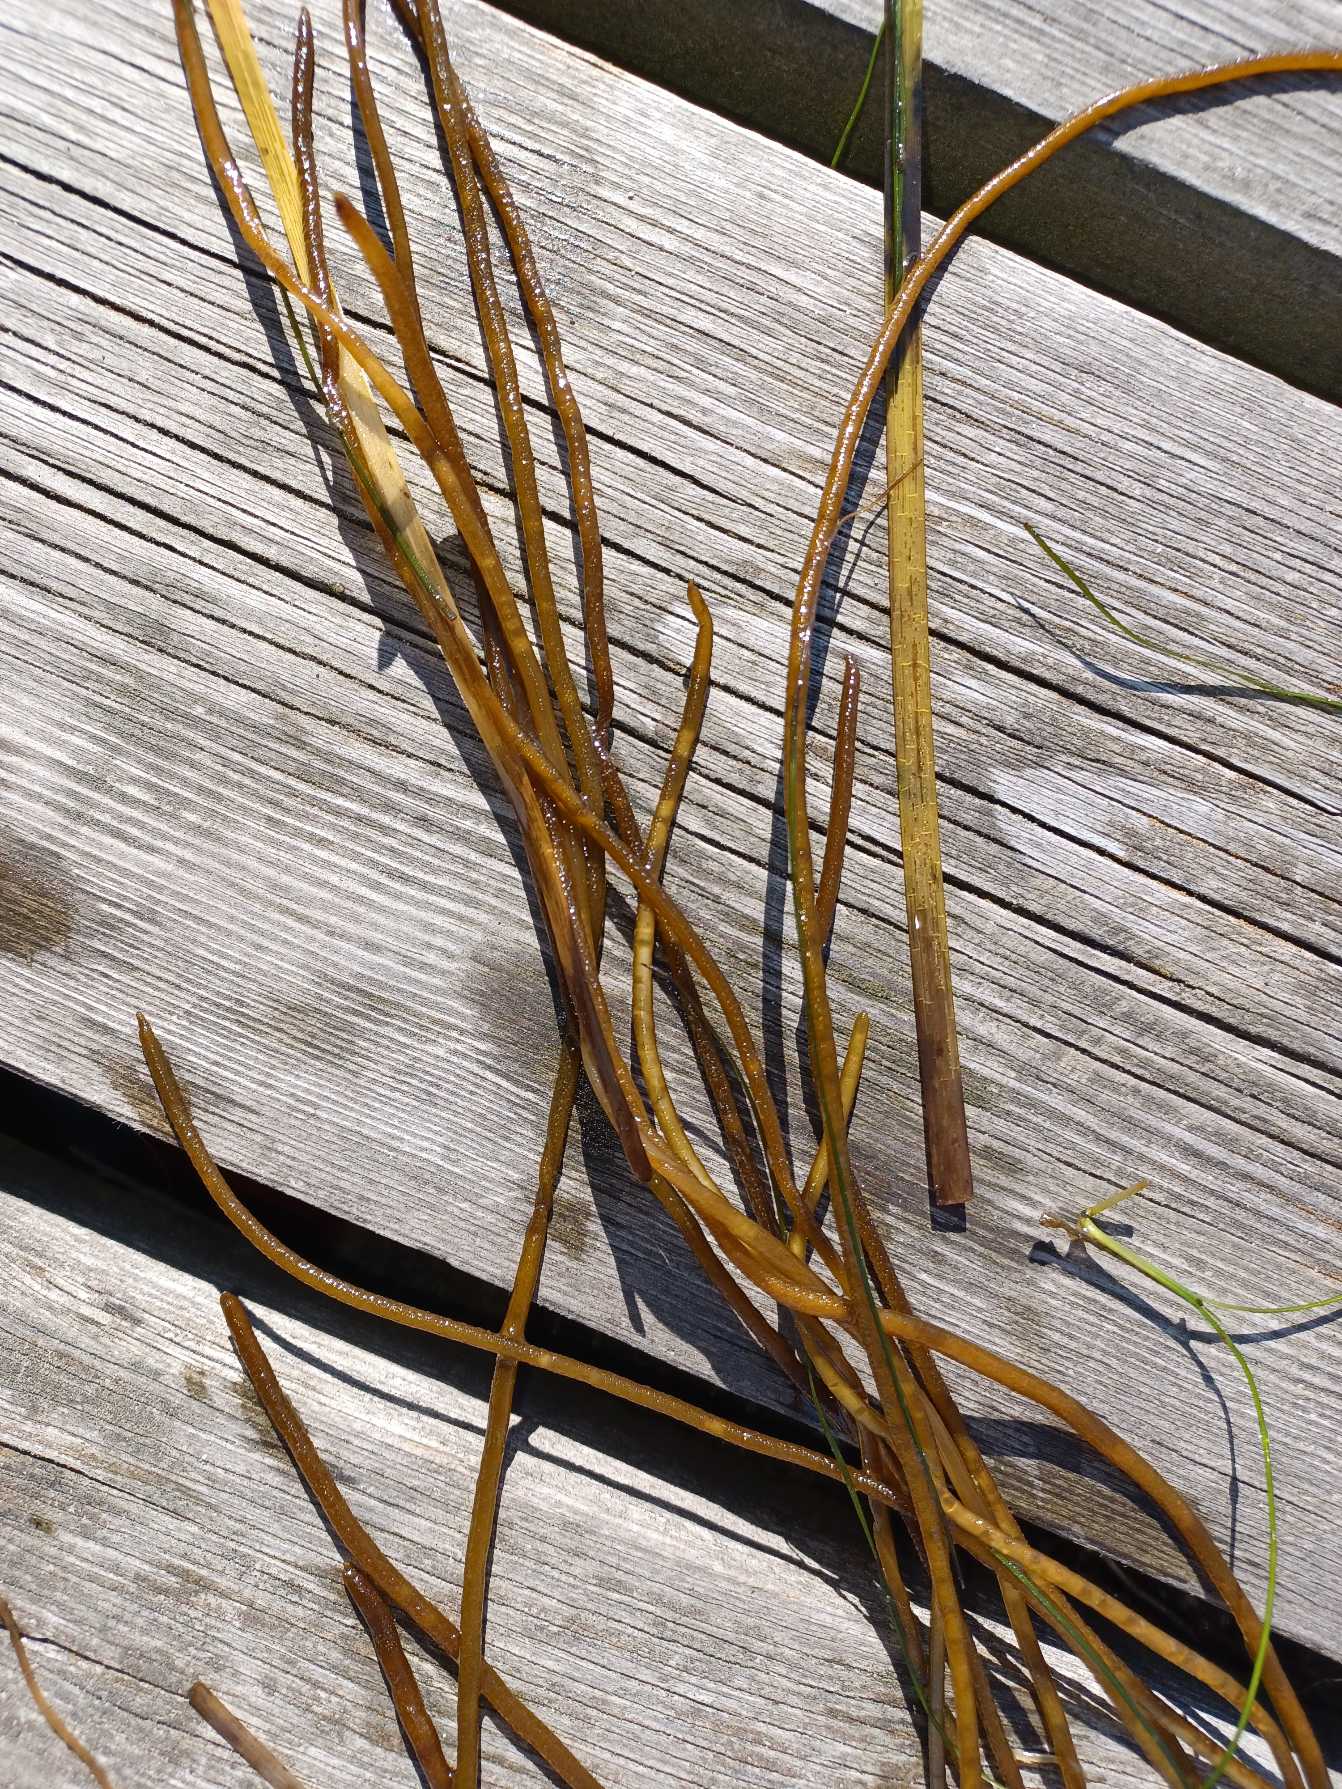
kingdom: Chromista
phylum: Ochrophyta
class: Phaeophyceae
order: Laminariales
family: Chordaceae
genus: Chorda
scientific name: Chorda filum
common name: Strengetang
